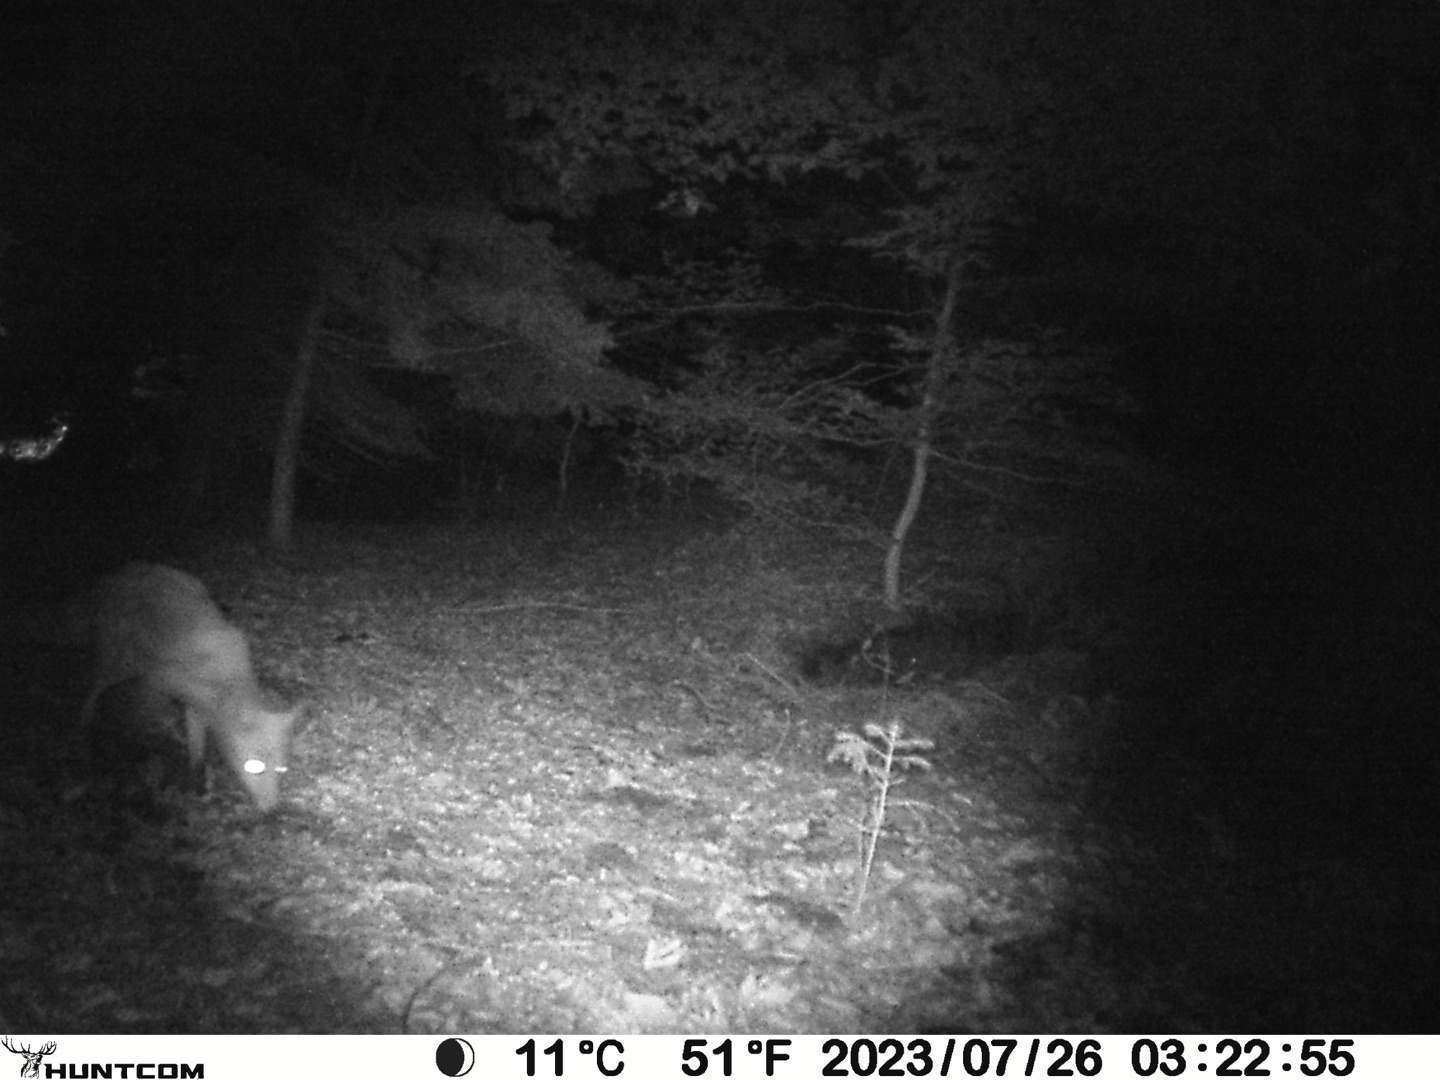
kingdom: Animalia
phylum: Chordata
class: Mammalia
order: Carnivora
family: Canidae
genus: Vulpes
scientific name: Vulpes vulpes
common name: Ræv
